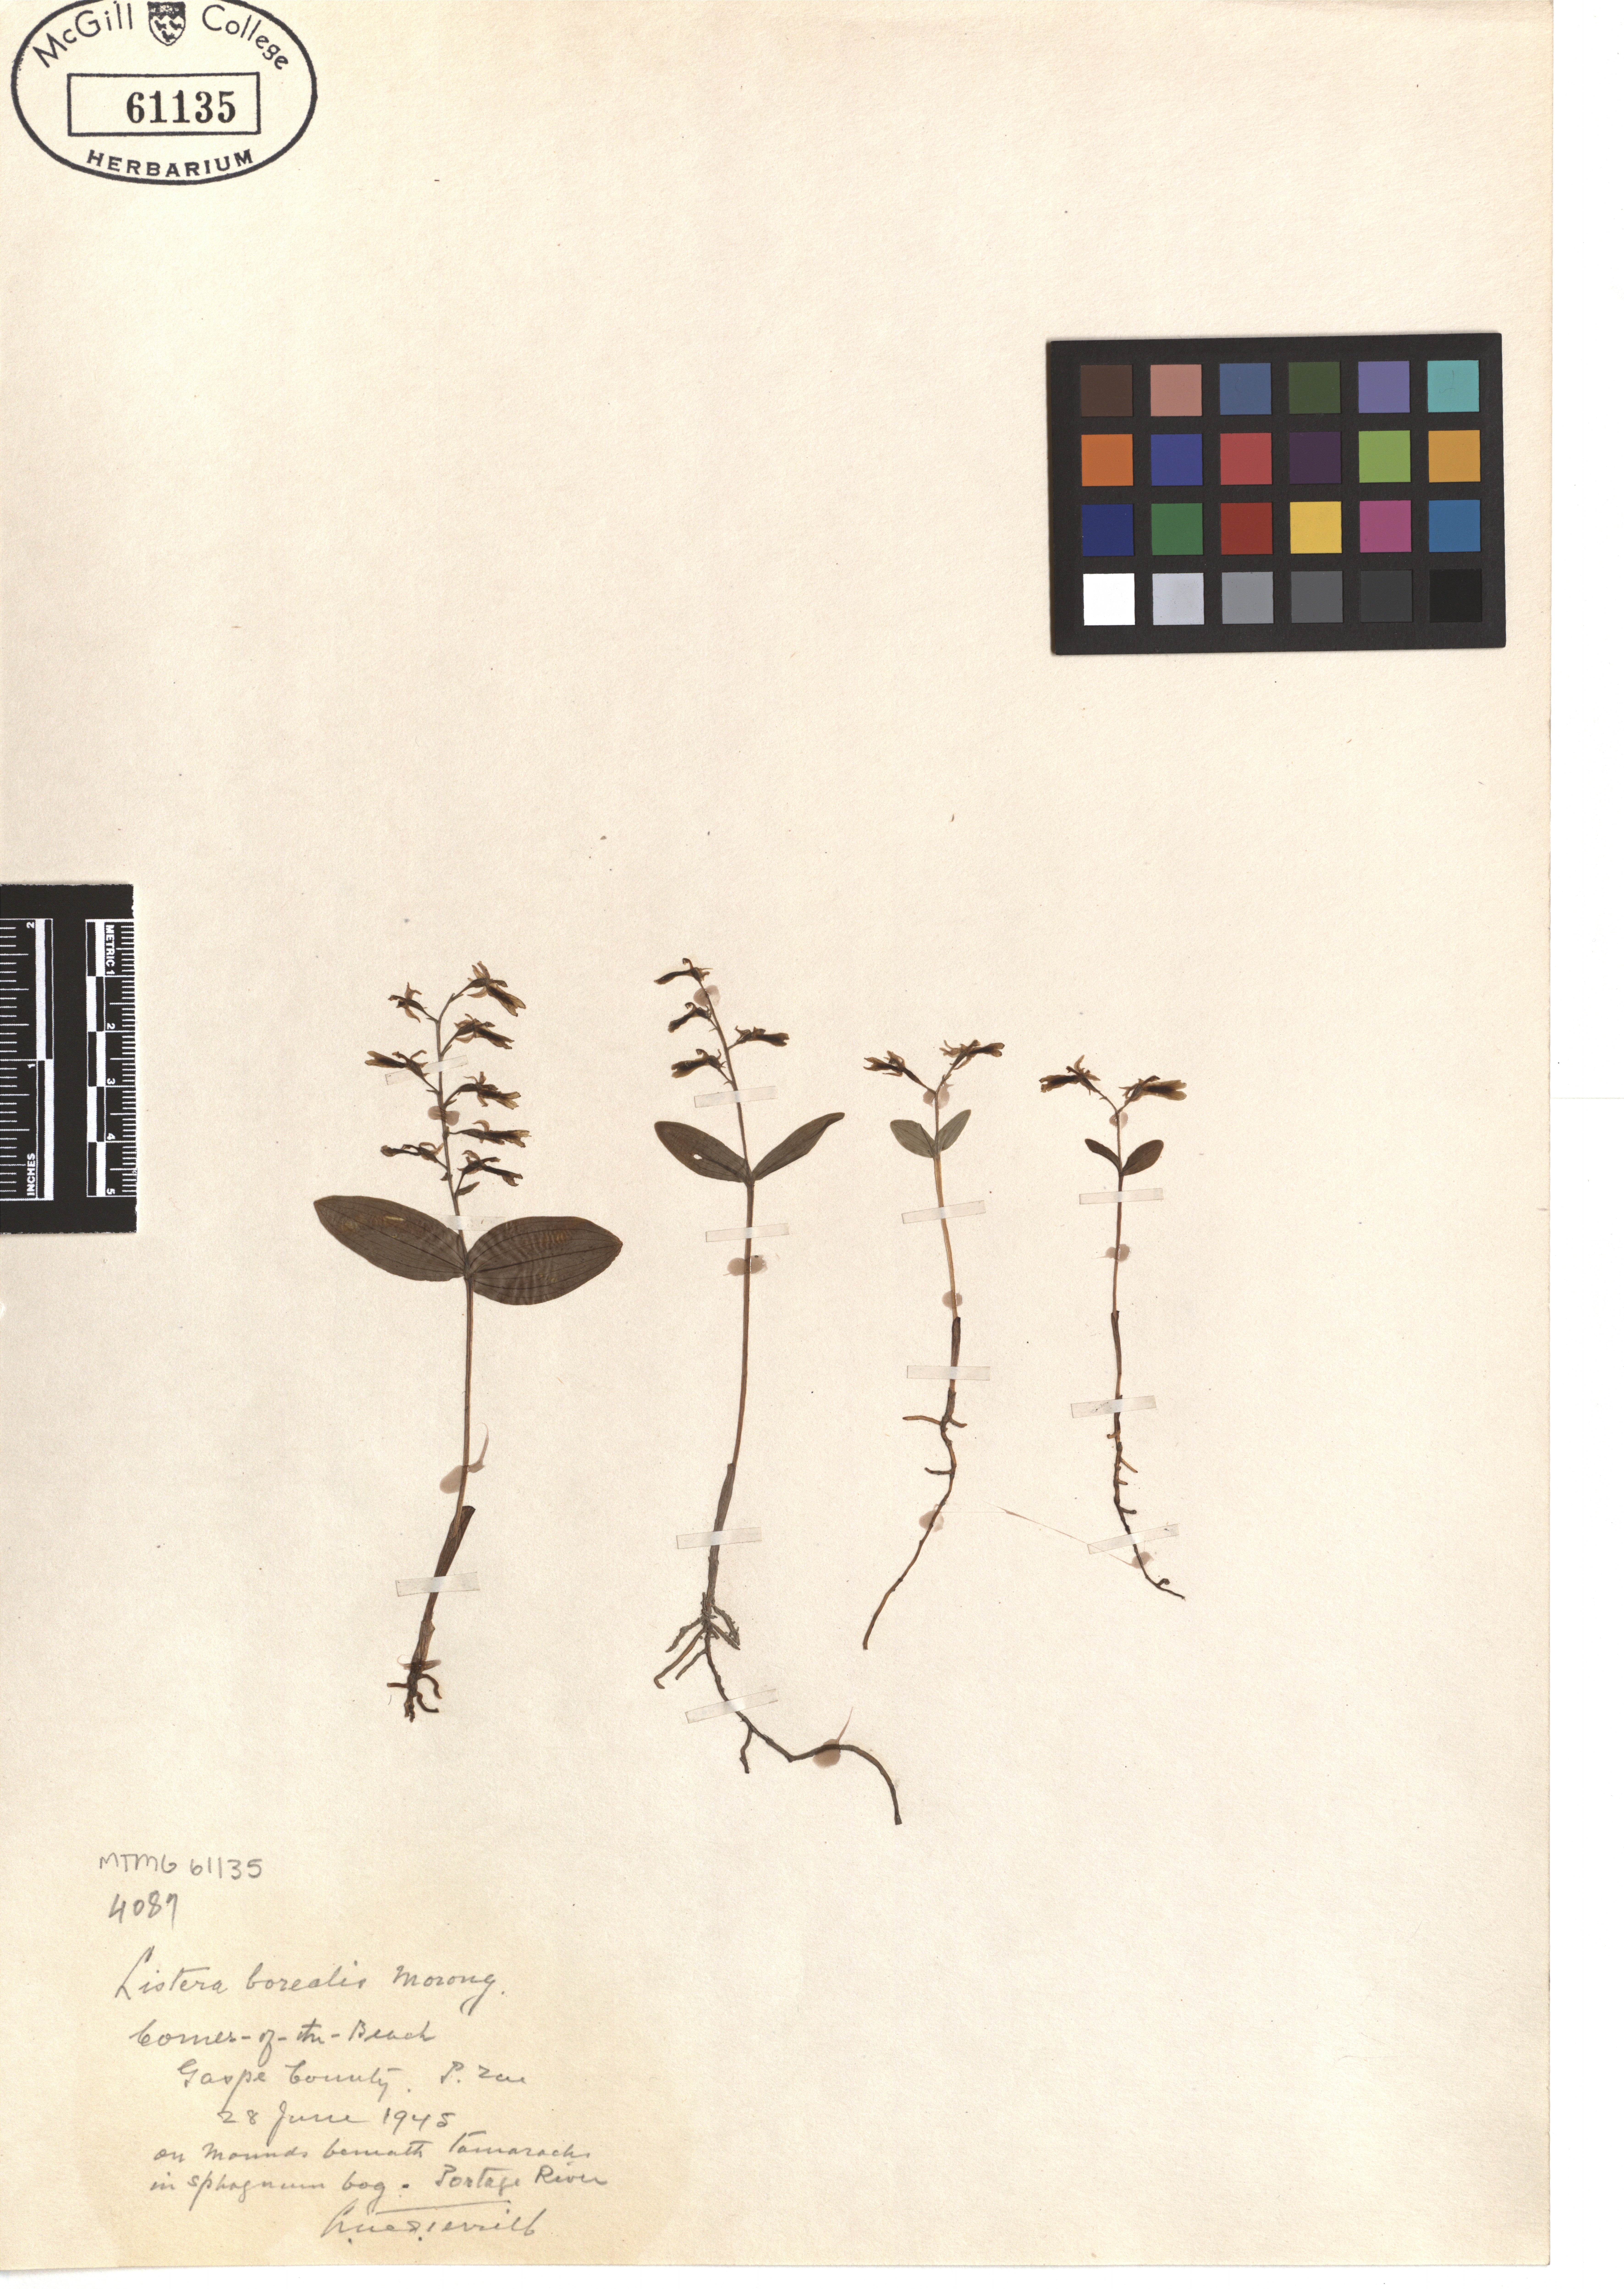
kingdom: Plantae
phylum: Tracheophyta
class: Liliopsida
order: Asparagales
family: Orchidaceae
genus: Neottia
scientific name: Neottia borealis
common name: Northern twayblade
